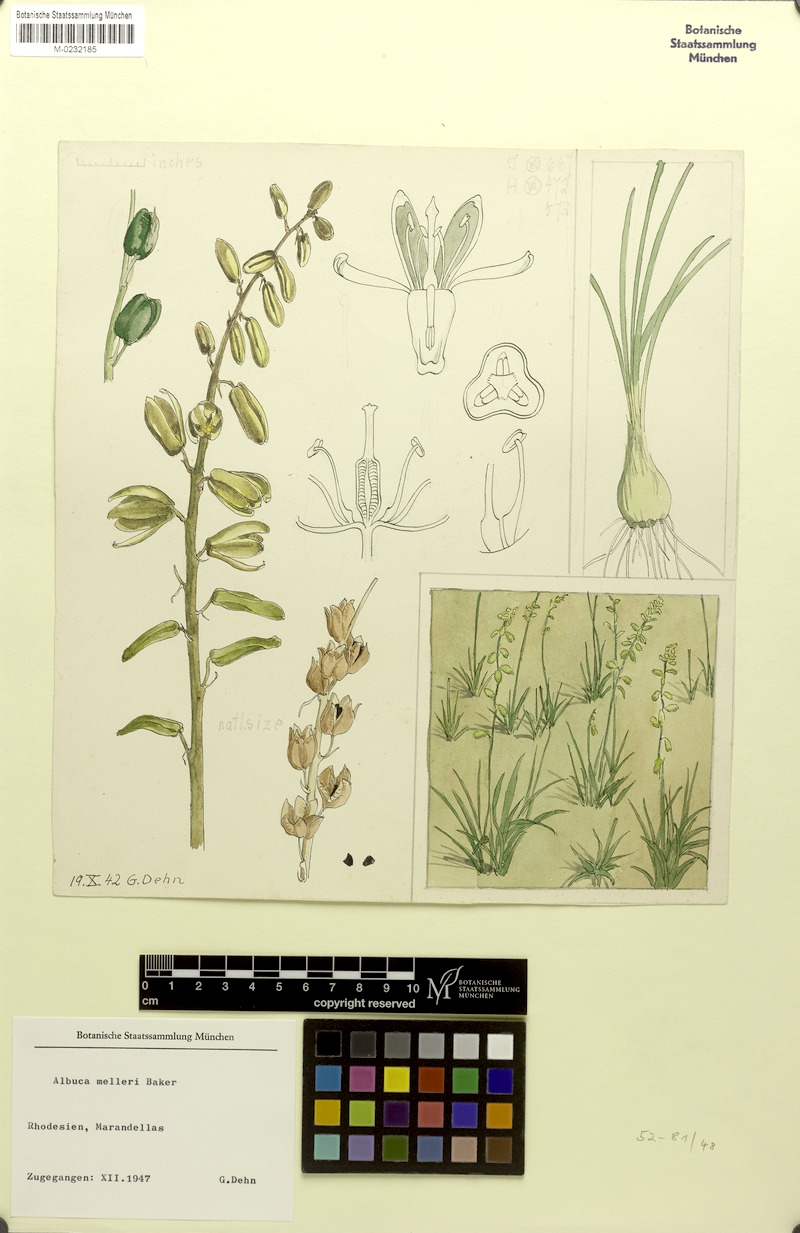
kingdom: Plantae
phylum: Tracheophyta
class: Liliopsida
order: Asparagales
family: Asparagaceae
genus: Albuca
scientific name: Albuca abyssinica
